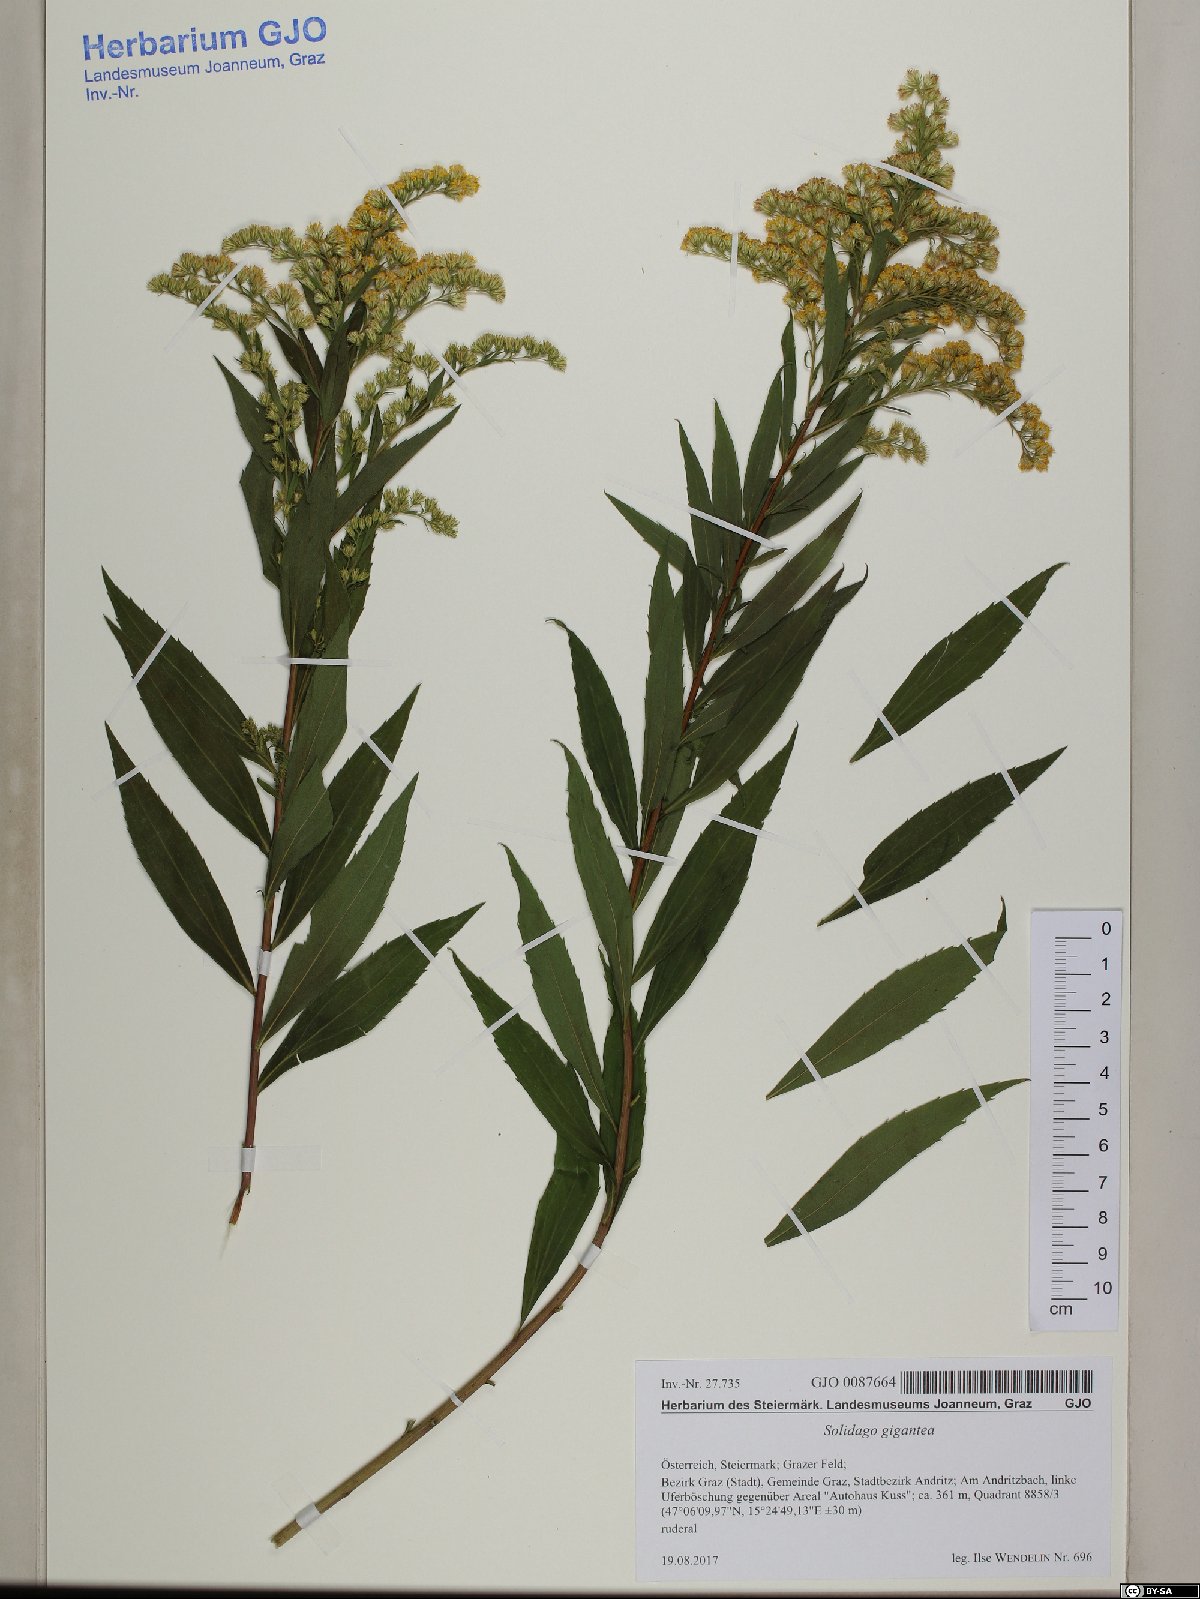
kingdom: Plantae
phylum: Tracheophyta
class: Magnoliopsida
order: Asterales
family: Asteraceae
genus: Solidago
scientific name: Solidago gigantea
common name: Giant goldenrod
